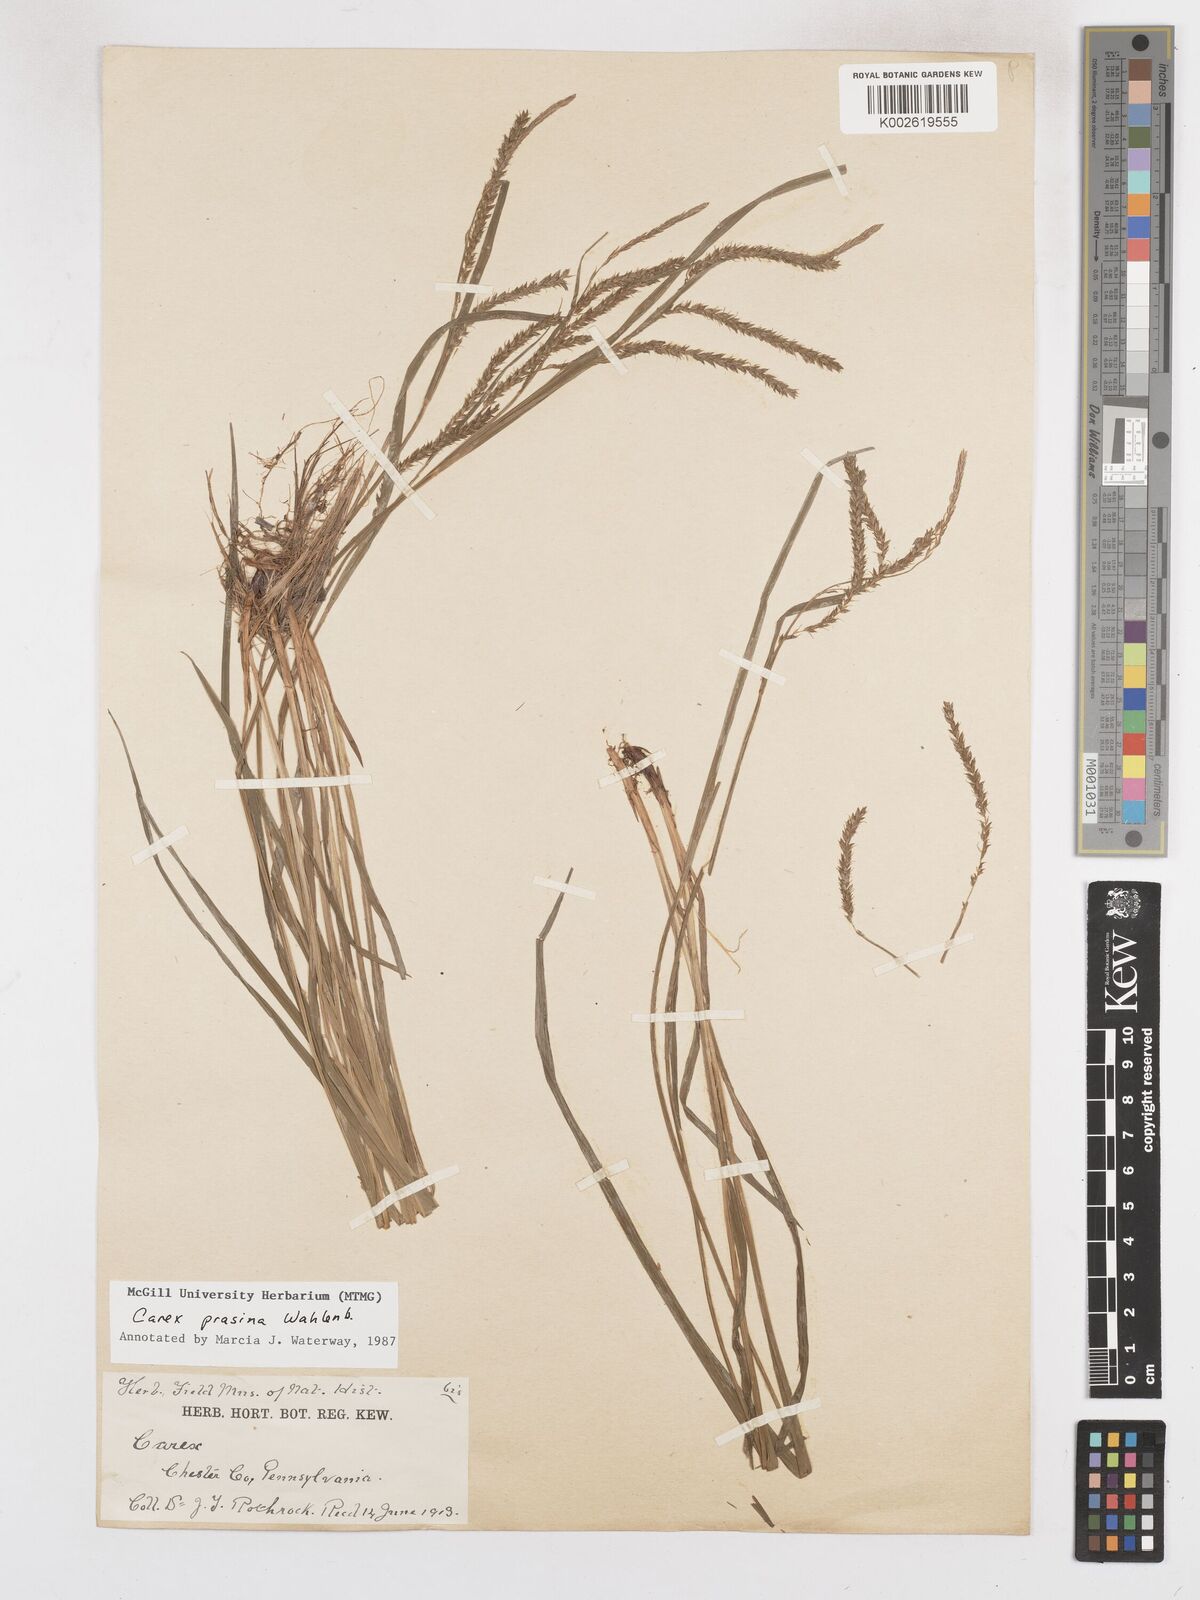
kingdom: Plantae
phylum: Tracheophyta
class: Liliopsida
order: Poales
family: Cyperaceae
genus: Carex
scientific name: Carex prasina
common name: Drooping sedge
